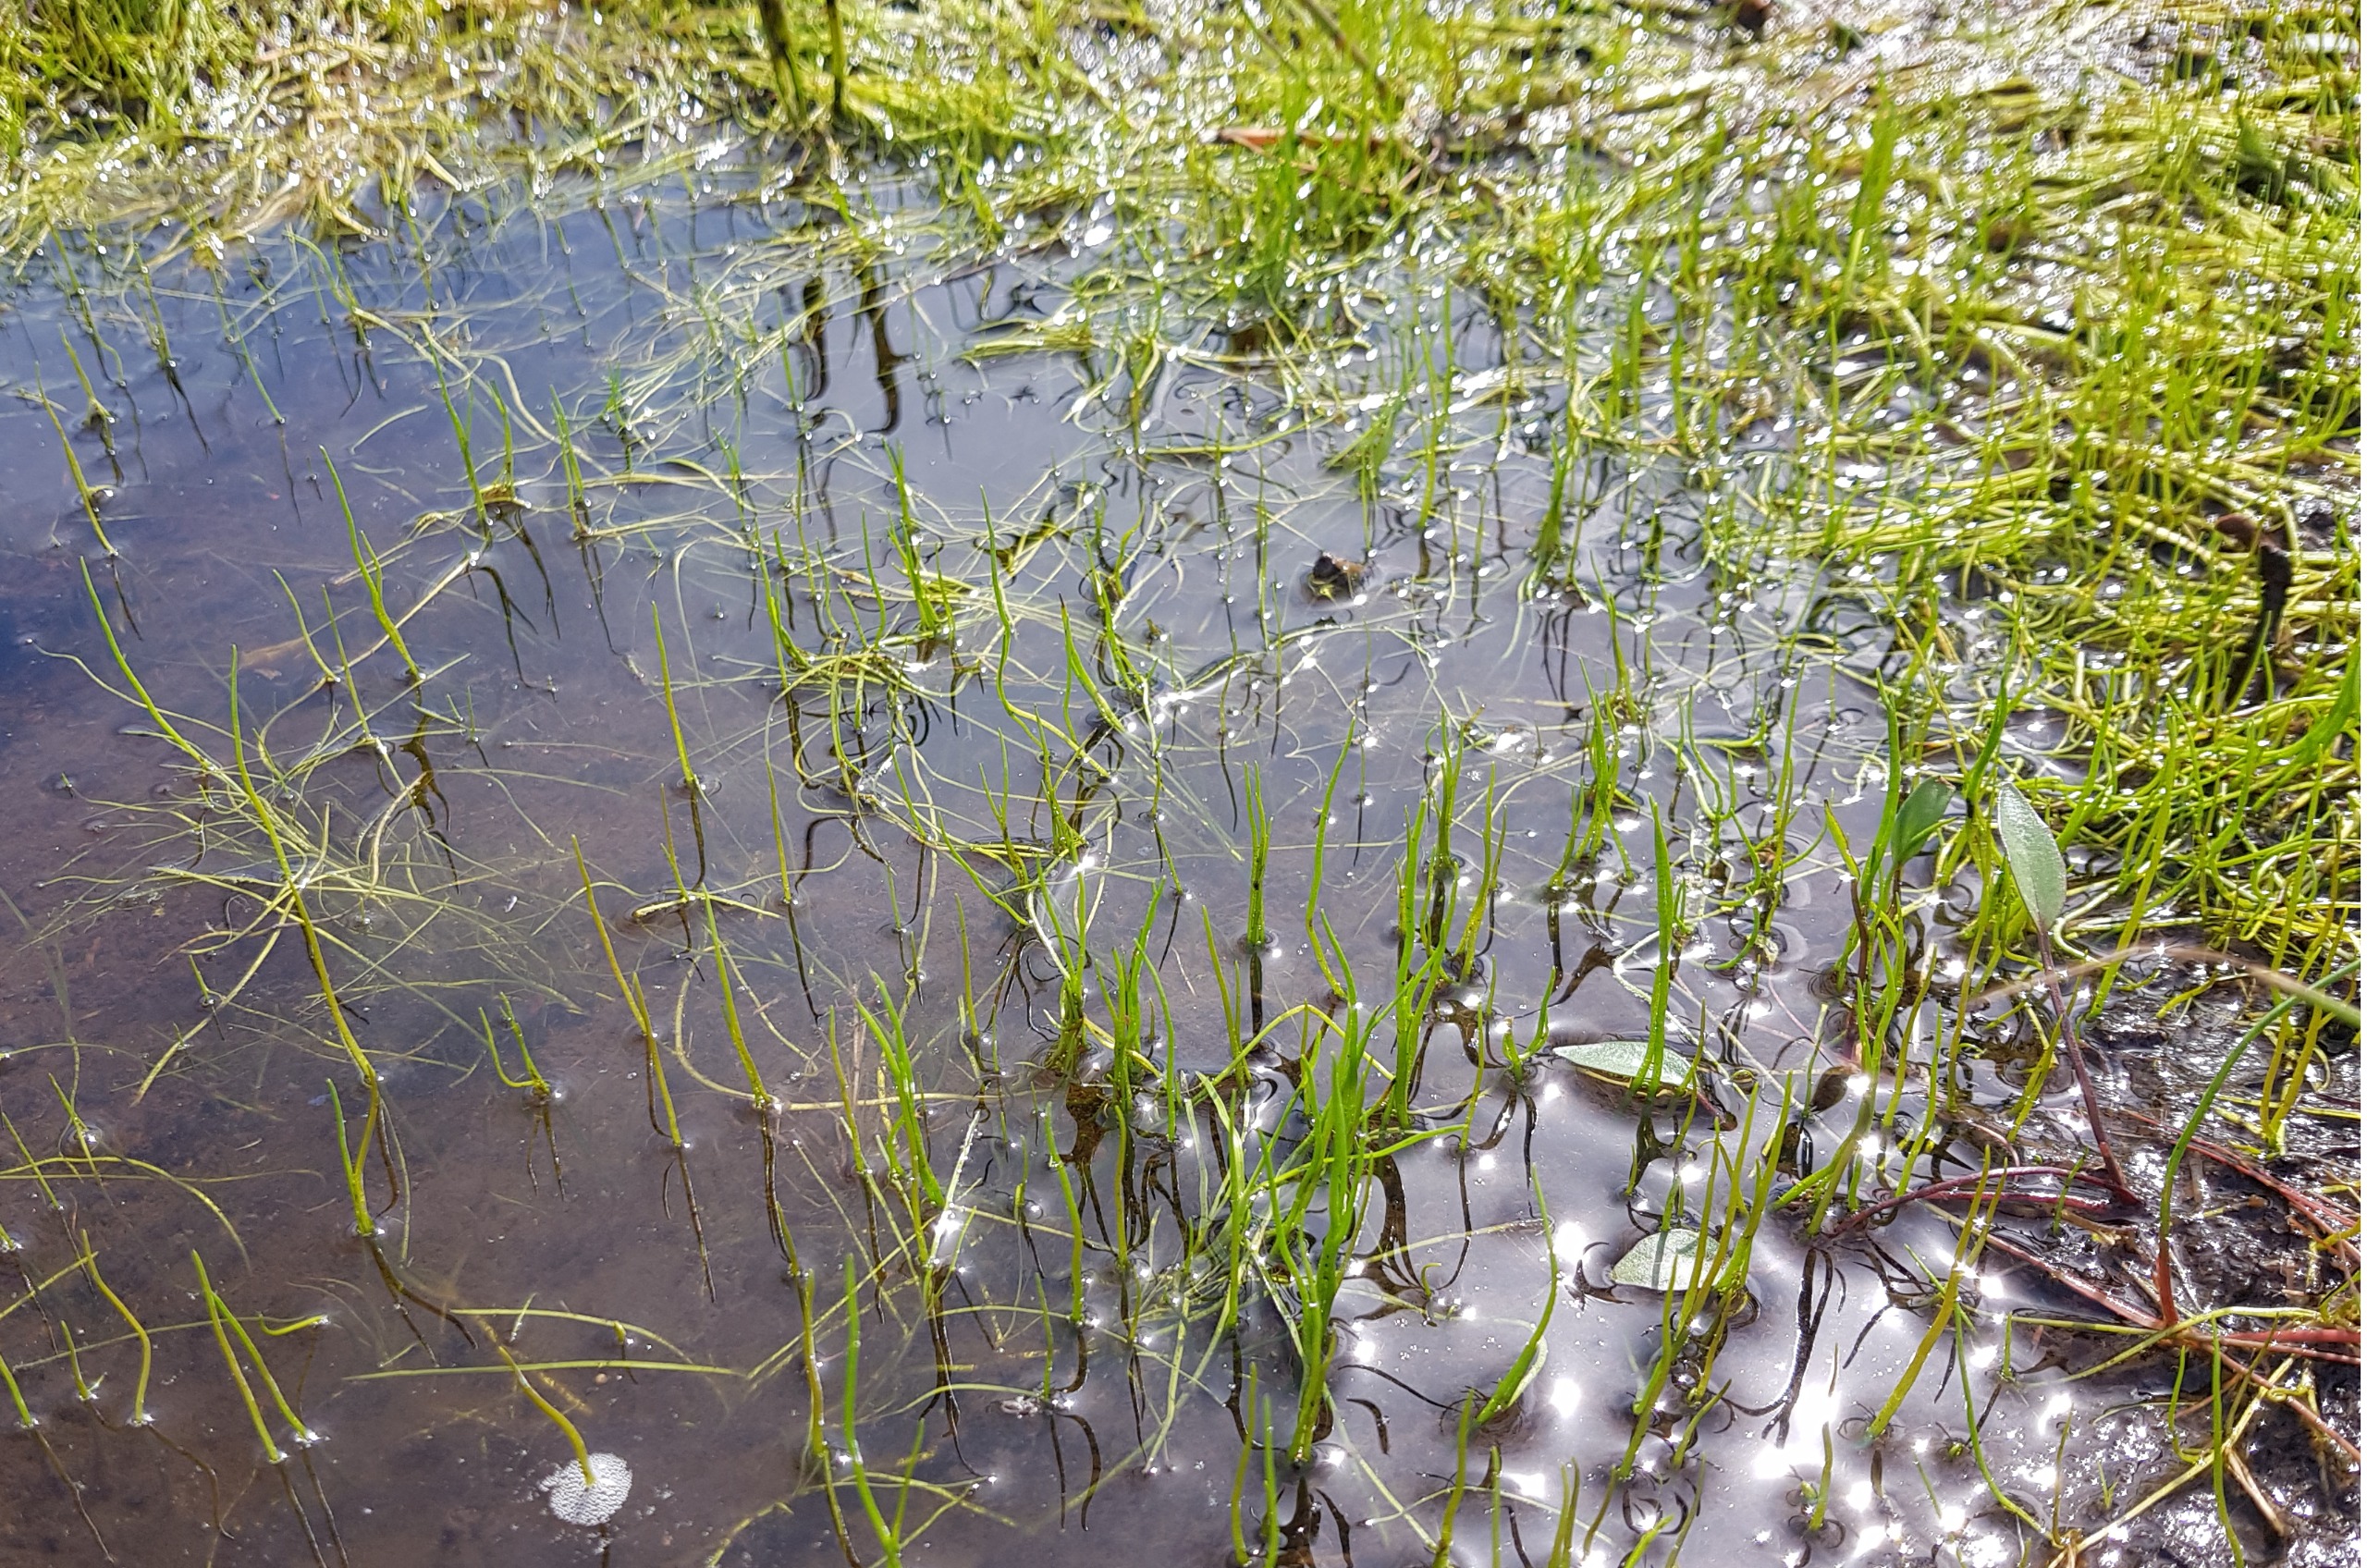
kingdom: Plantae
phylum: Tracheophyta
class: Polypodiopsida
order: Salviniales
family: Marsileaceae
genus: Pilularia
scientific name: Pilularia globulifera
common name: Pilledrager
